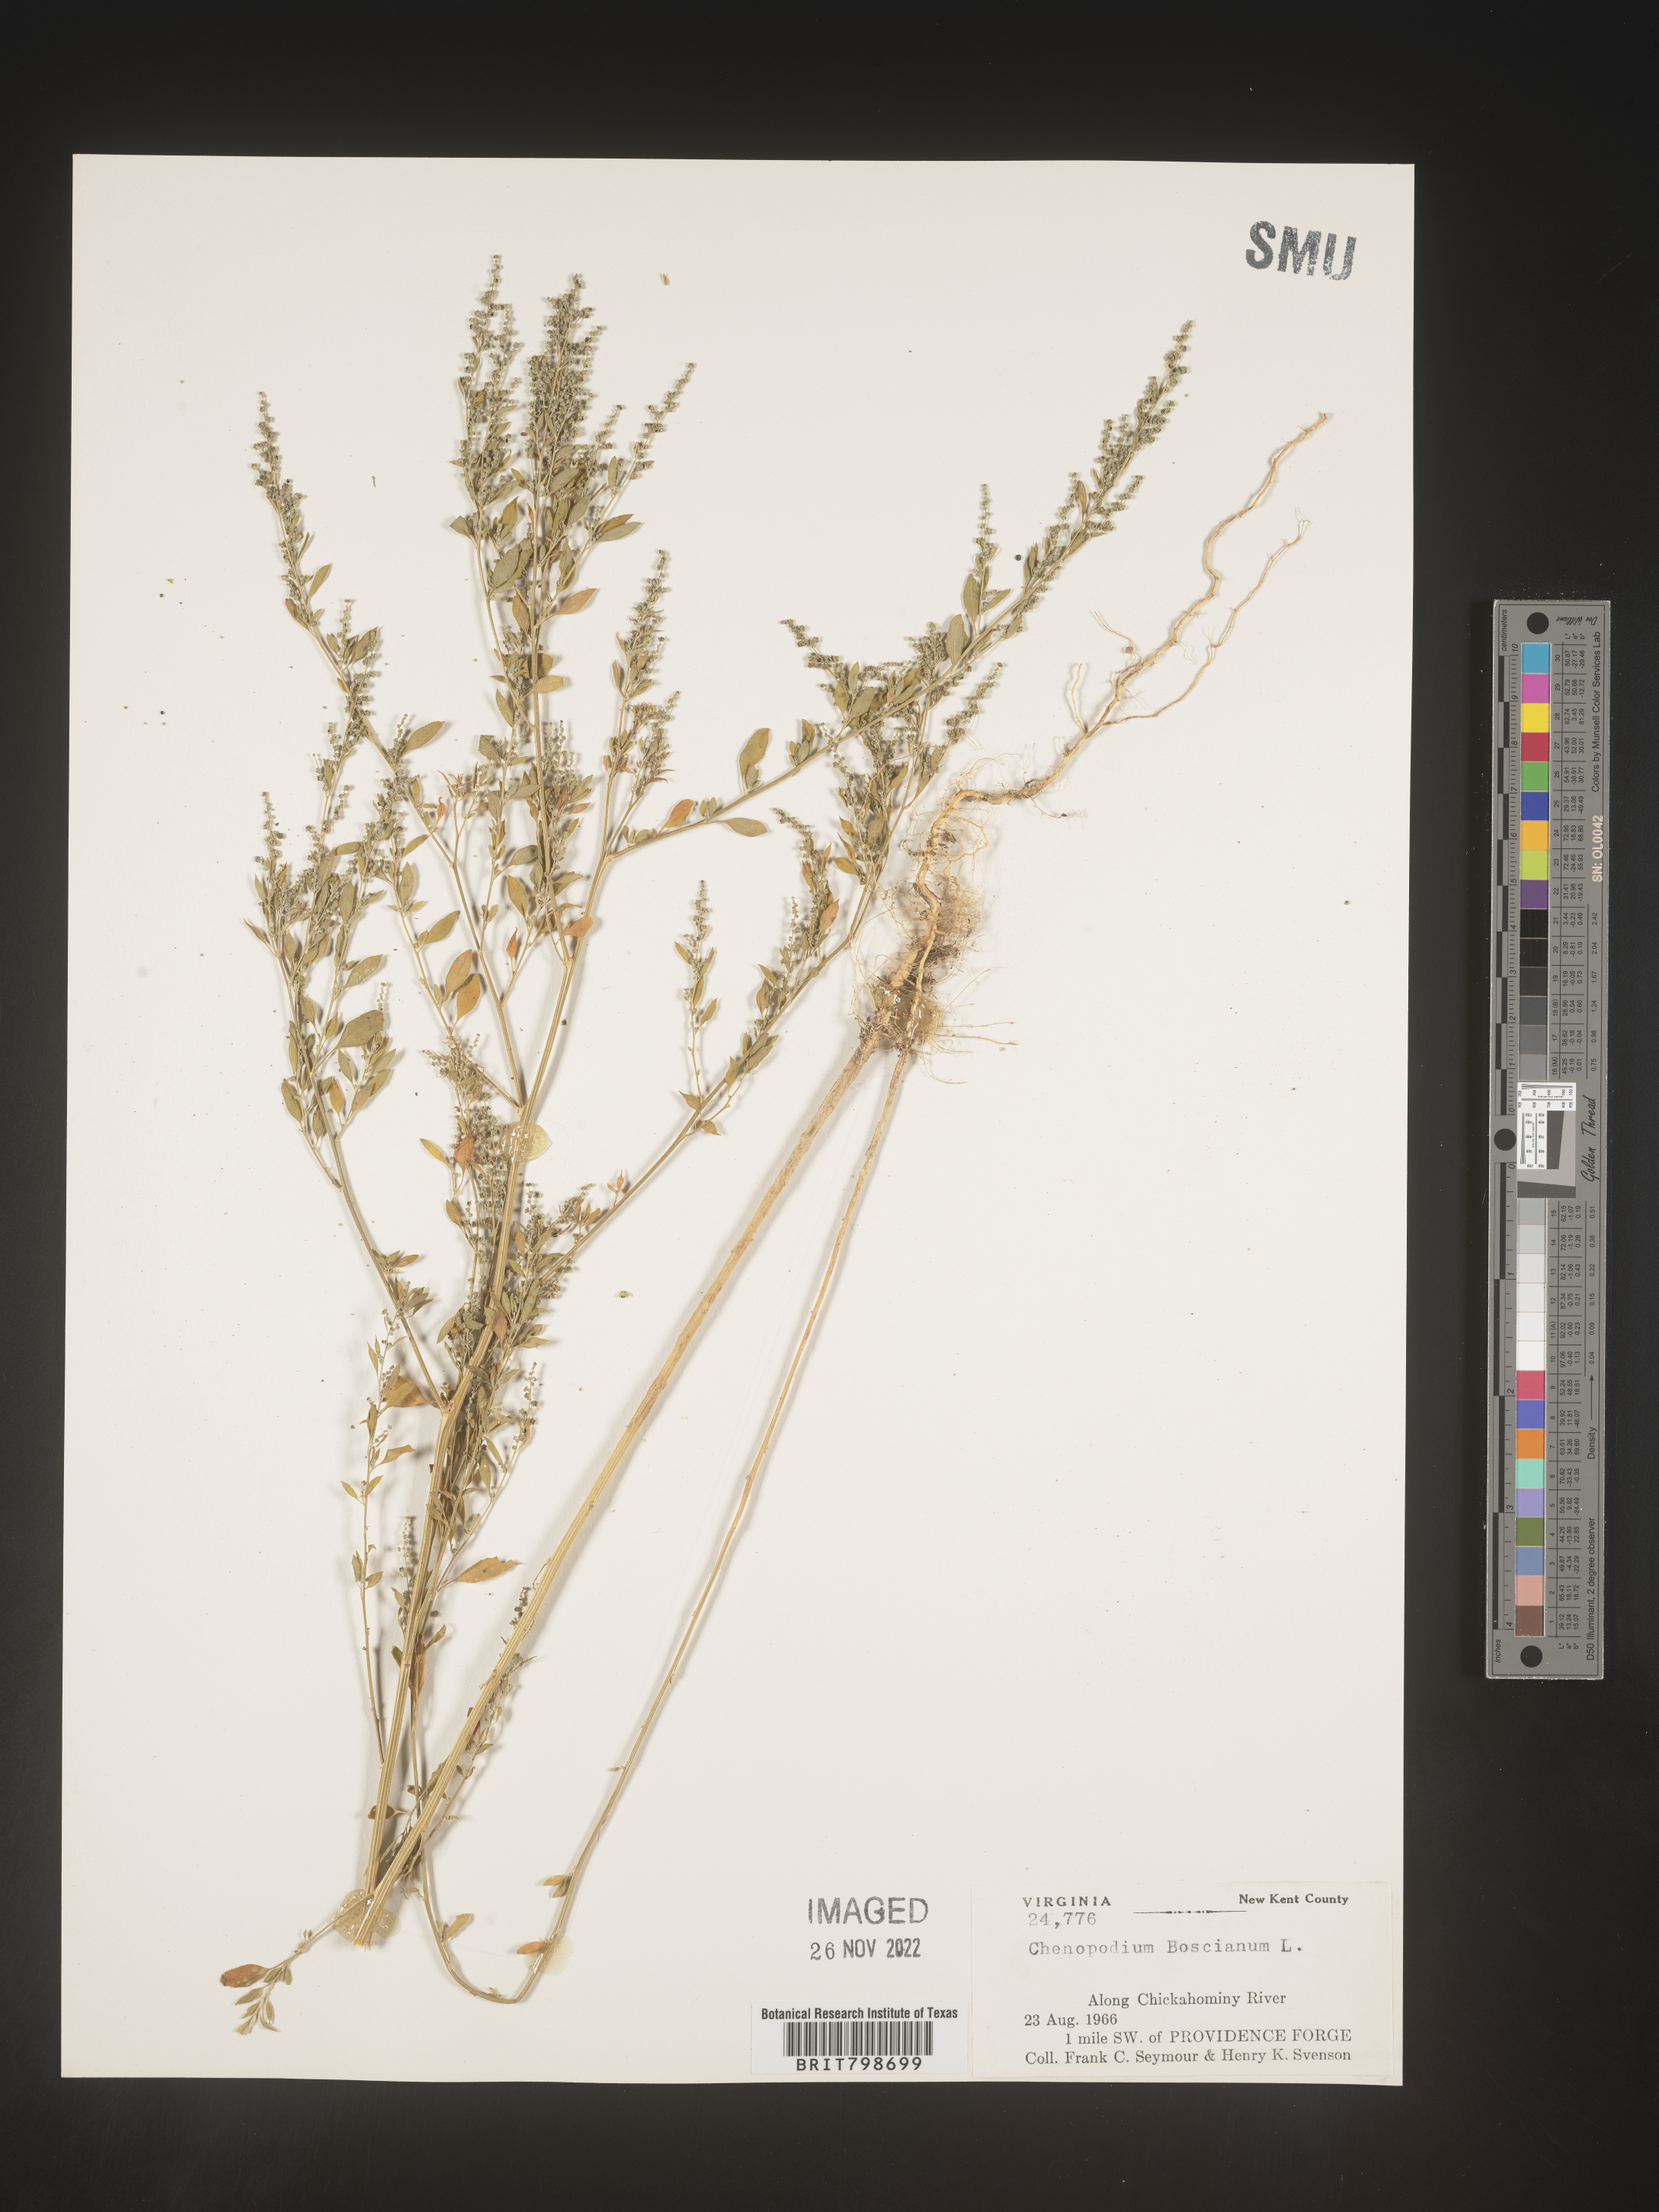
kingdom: Plantae
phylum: Tracheophyta
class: Magnoliopsida
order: Caryophyllales
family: Amaranthaceae
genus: Chenopodium
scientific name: Chenopodium berlandieri
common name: Pit-seed goosefoot
